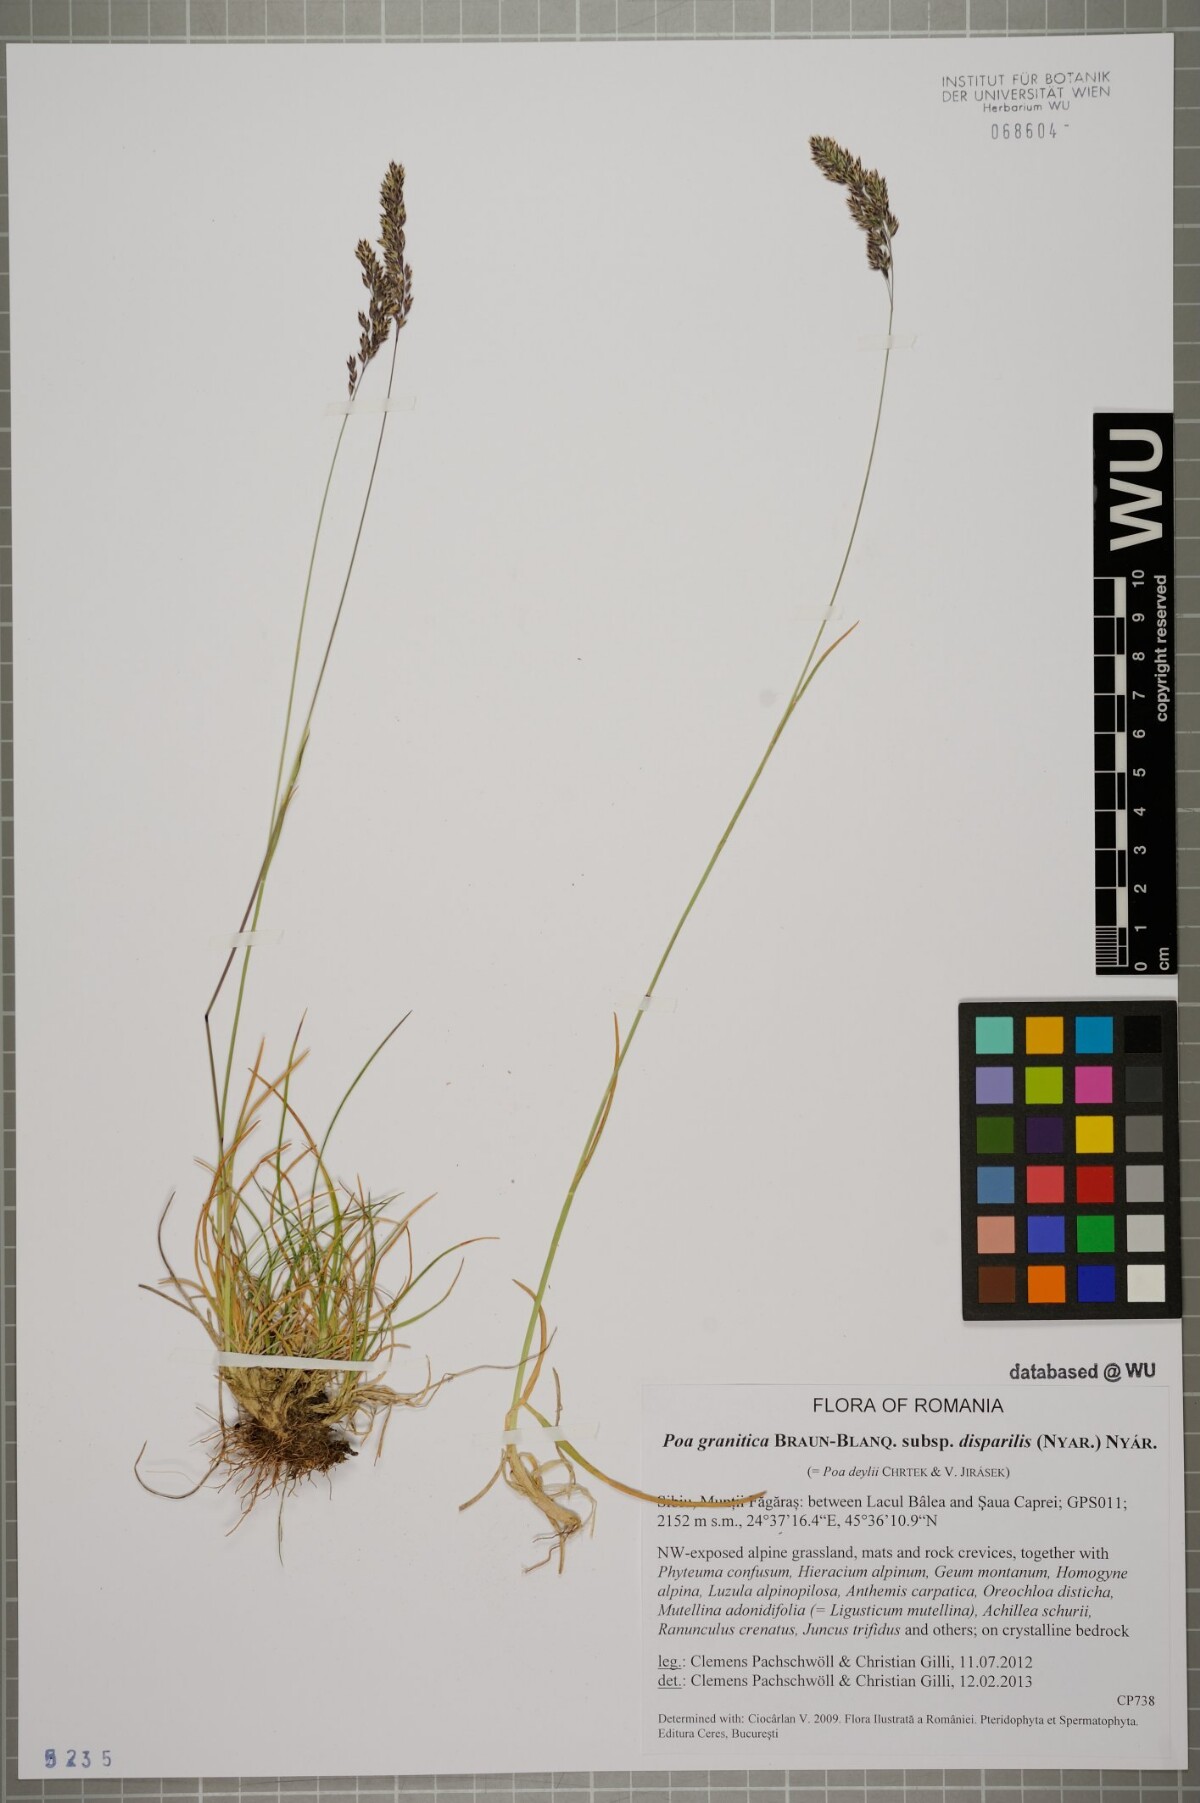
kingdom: Plantae
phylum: Tracheophyta
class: Liliopsida
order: Poales
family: Poaceae
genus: Poa
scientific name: Poa granitica
